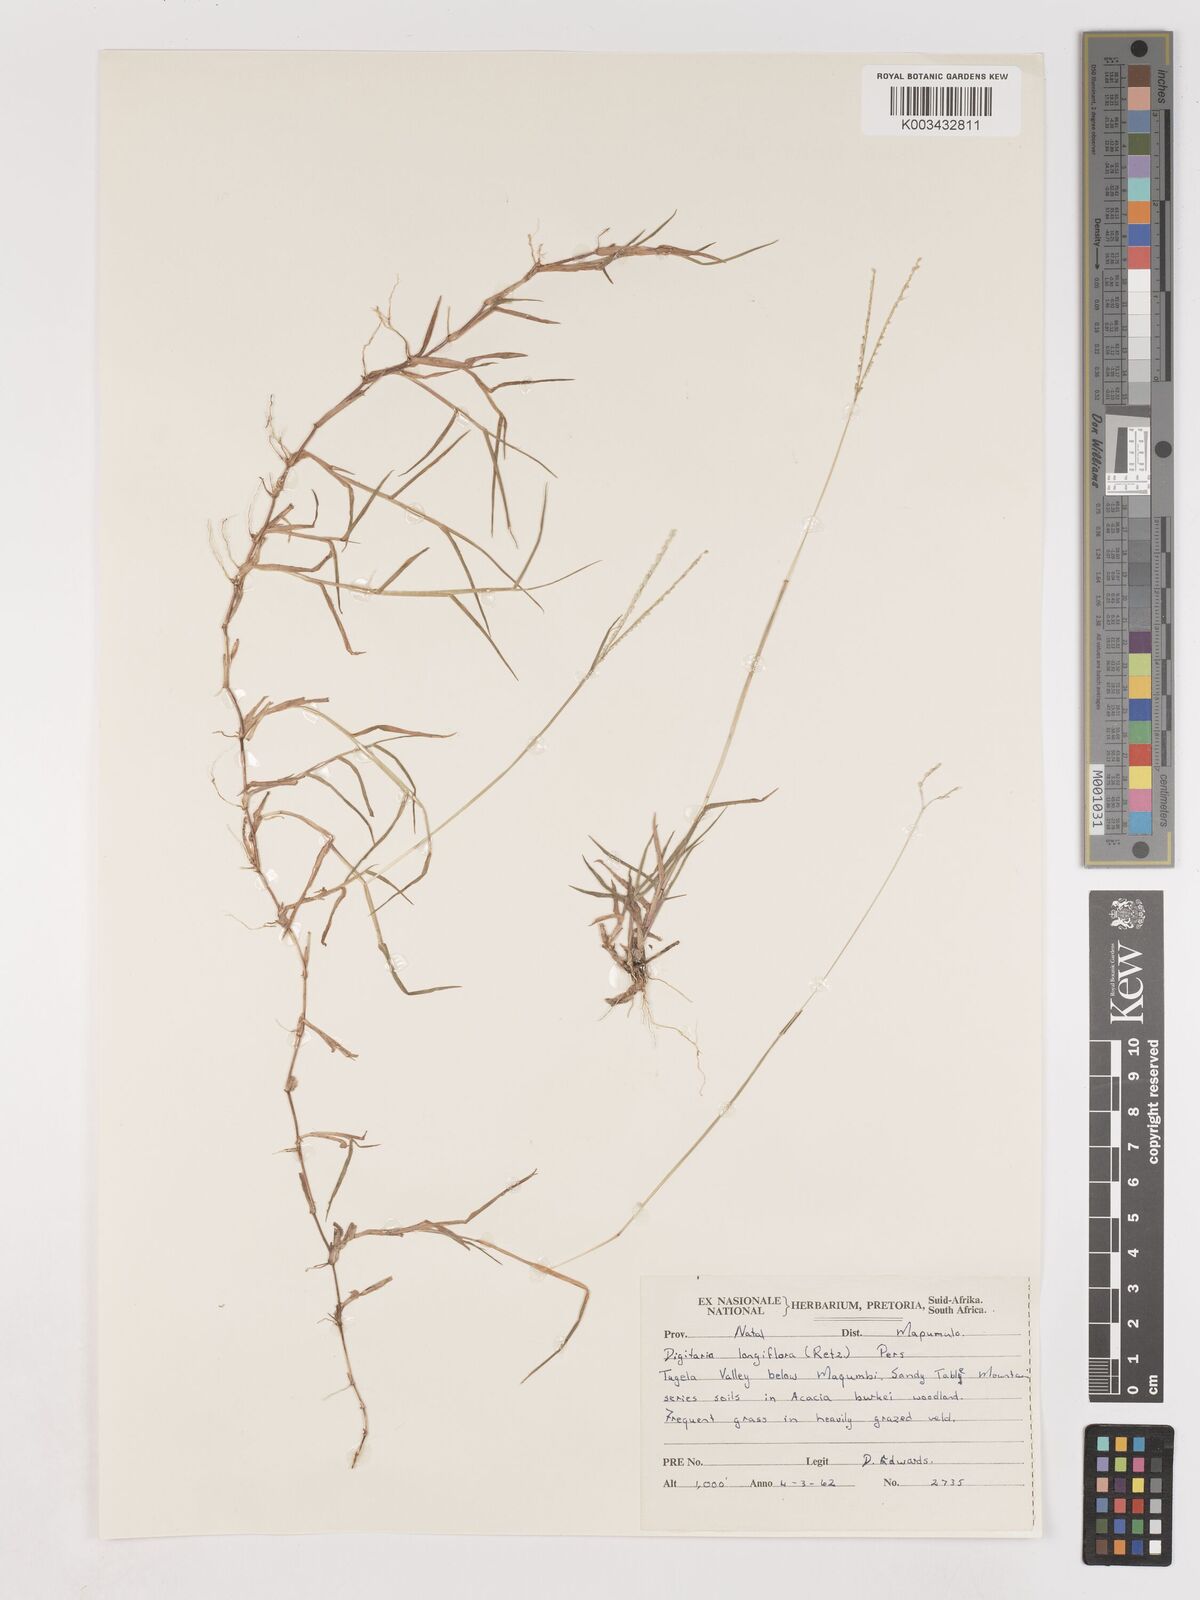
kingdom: Plantae
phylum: Tracheophyta
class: Liliopsida
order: Poales
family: Poaceae
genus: Digitaria
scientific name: Digitaria longiflora
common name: Wire crabgrass
